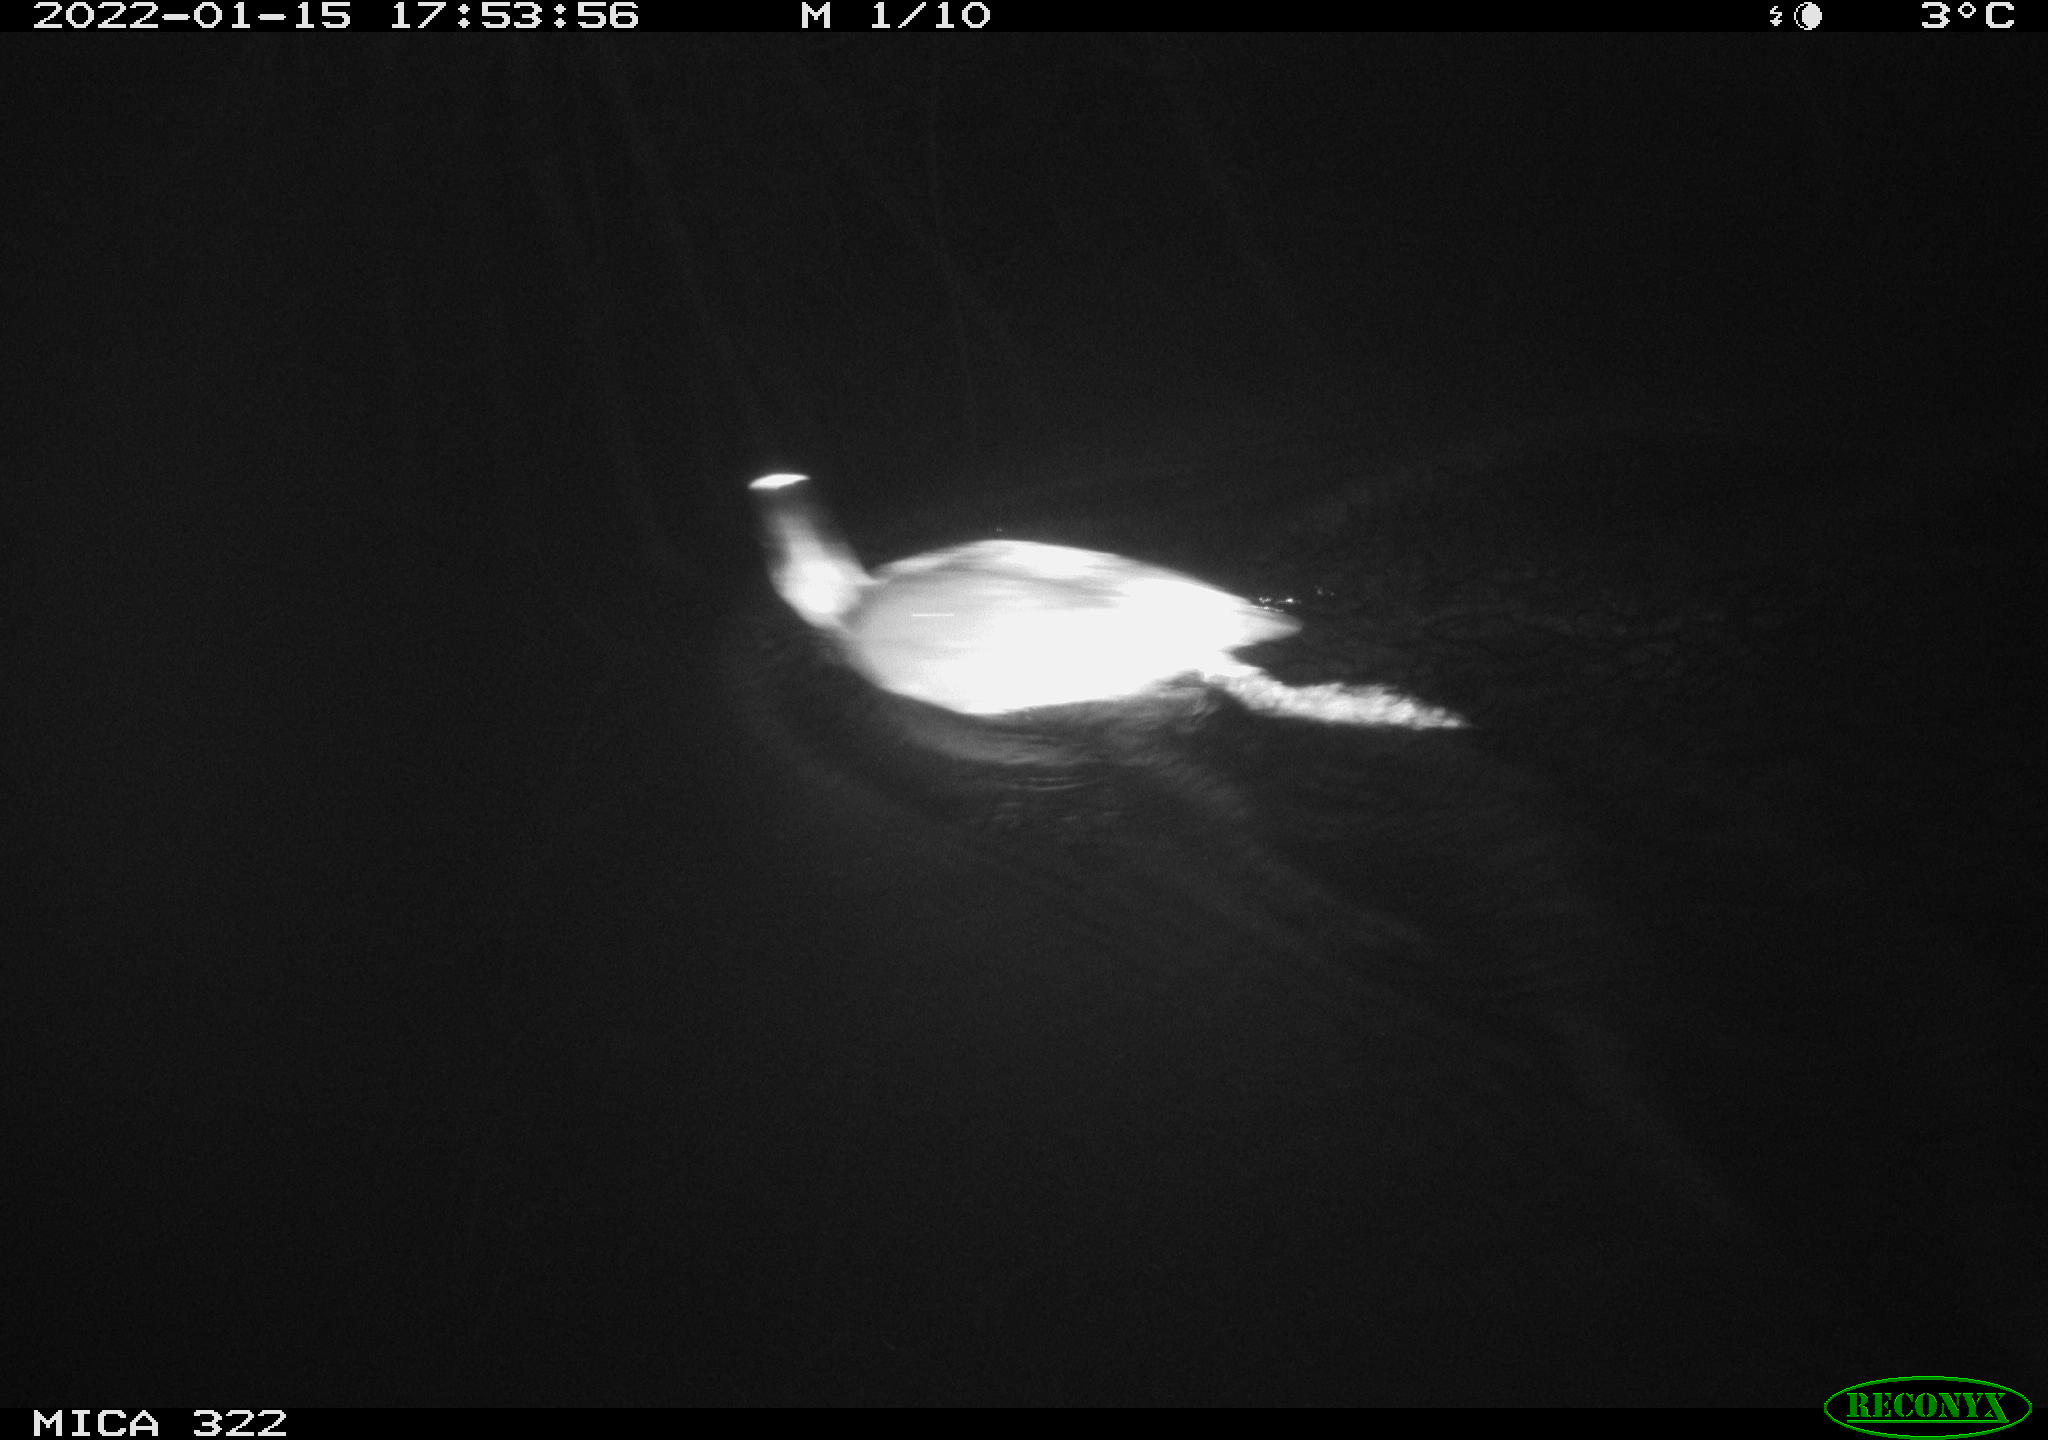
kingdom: Animalia
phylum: Chordata
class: Aves
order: Anseriformes
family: Anatidae
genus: Anas
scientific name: Anas
